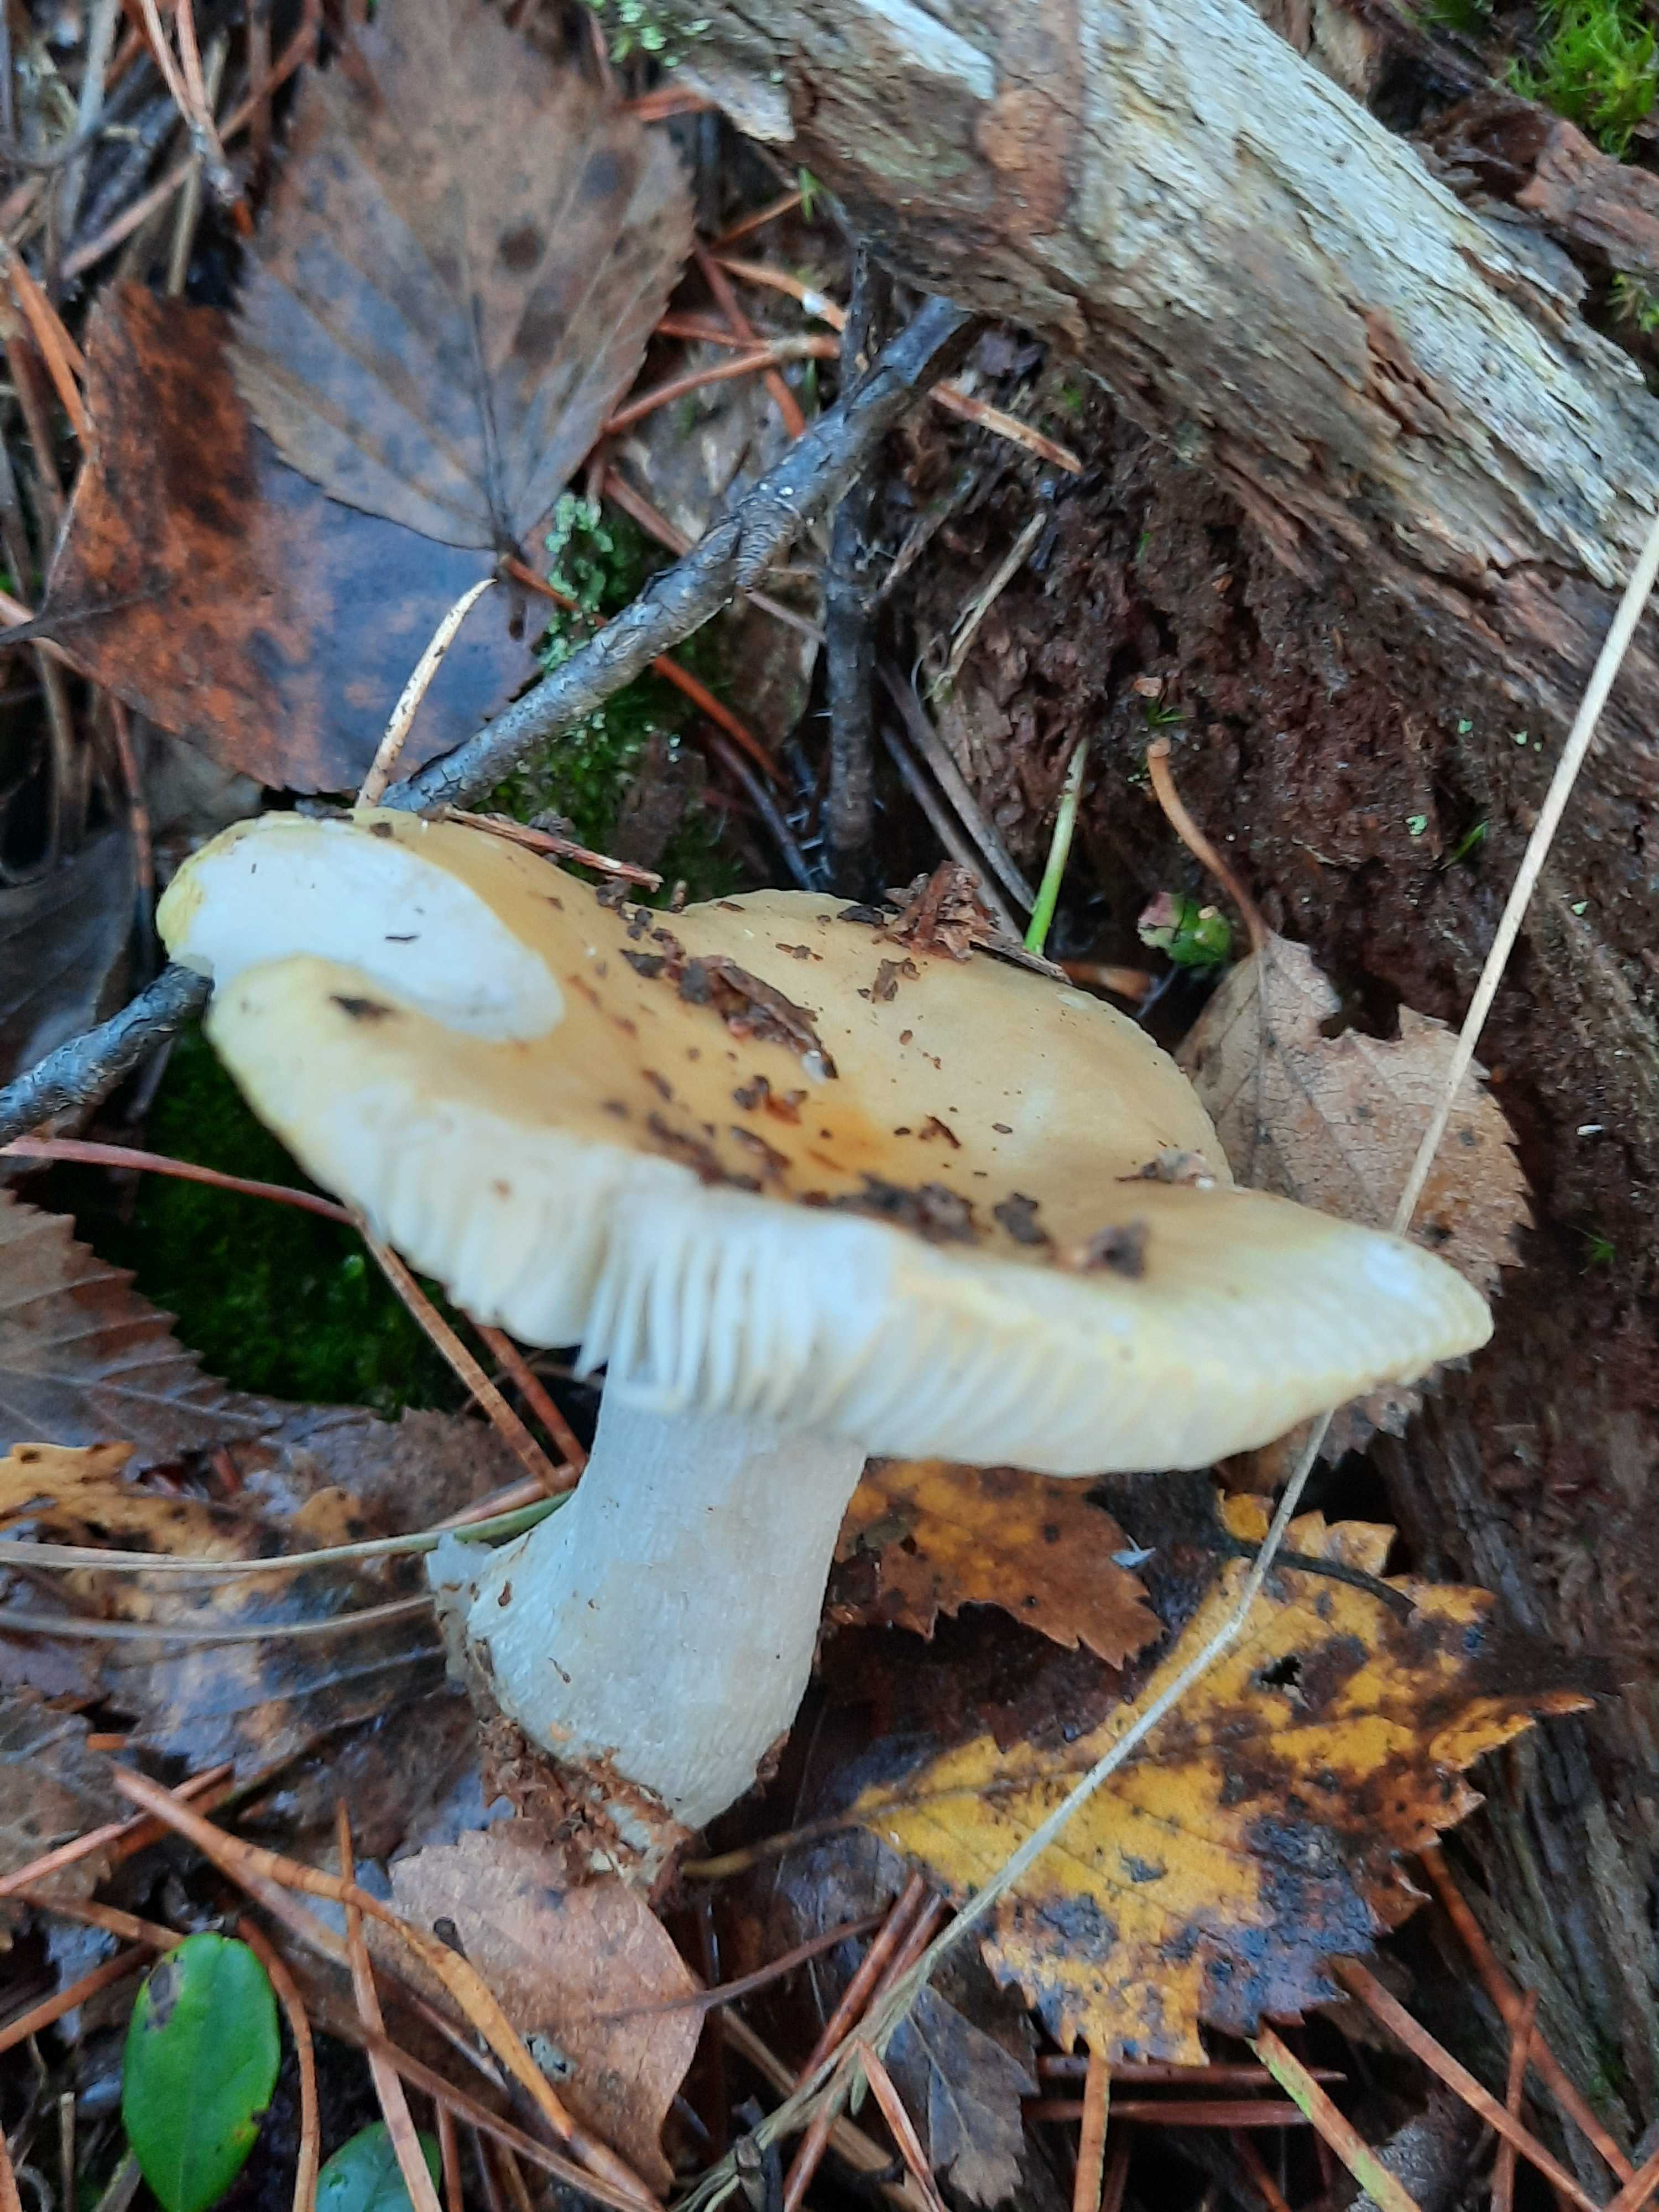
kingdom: Fungi
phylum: Basidiomycota
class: Agaricomycetes
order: Russulales
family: Russulaceae
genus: Russula
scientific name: Russula ochroleuca
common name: okkergul skørhat
